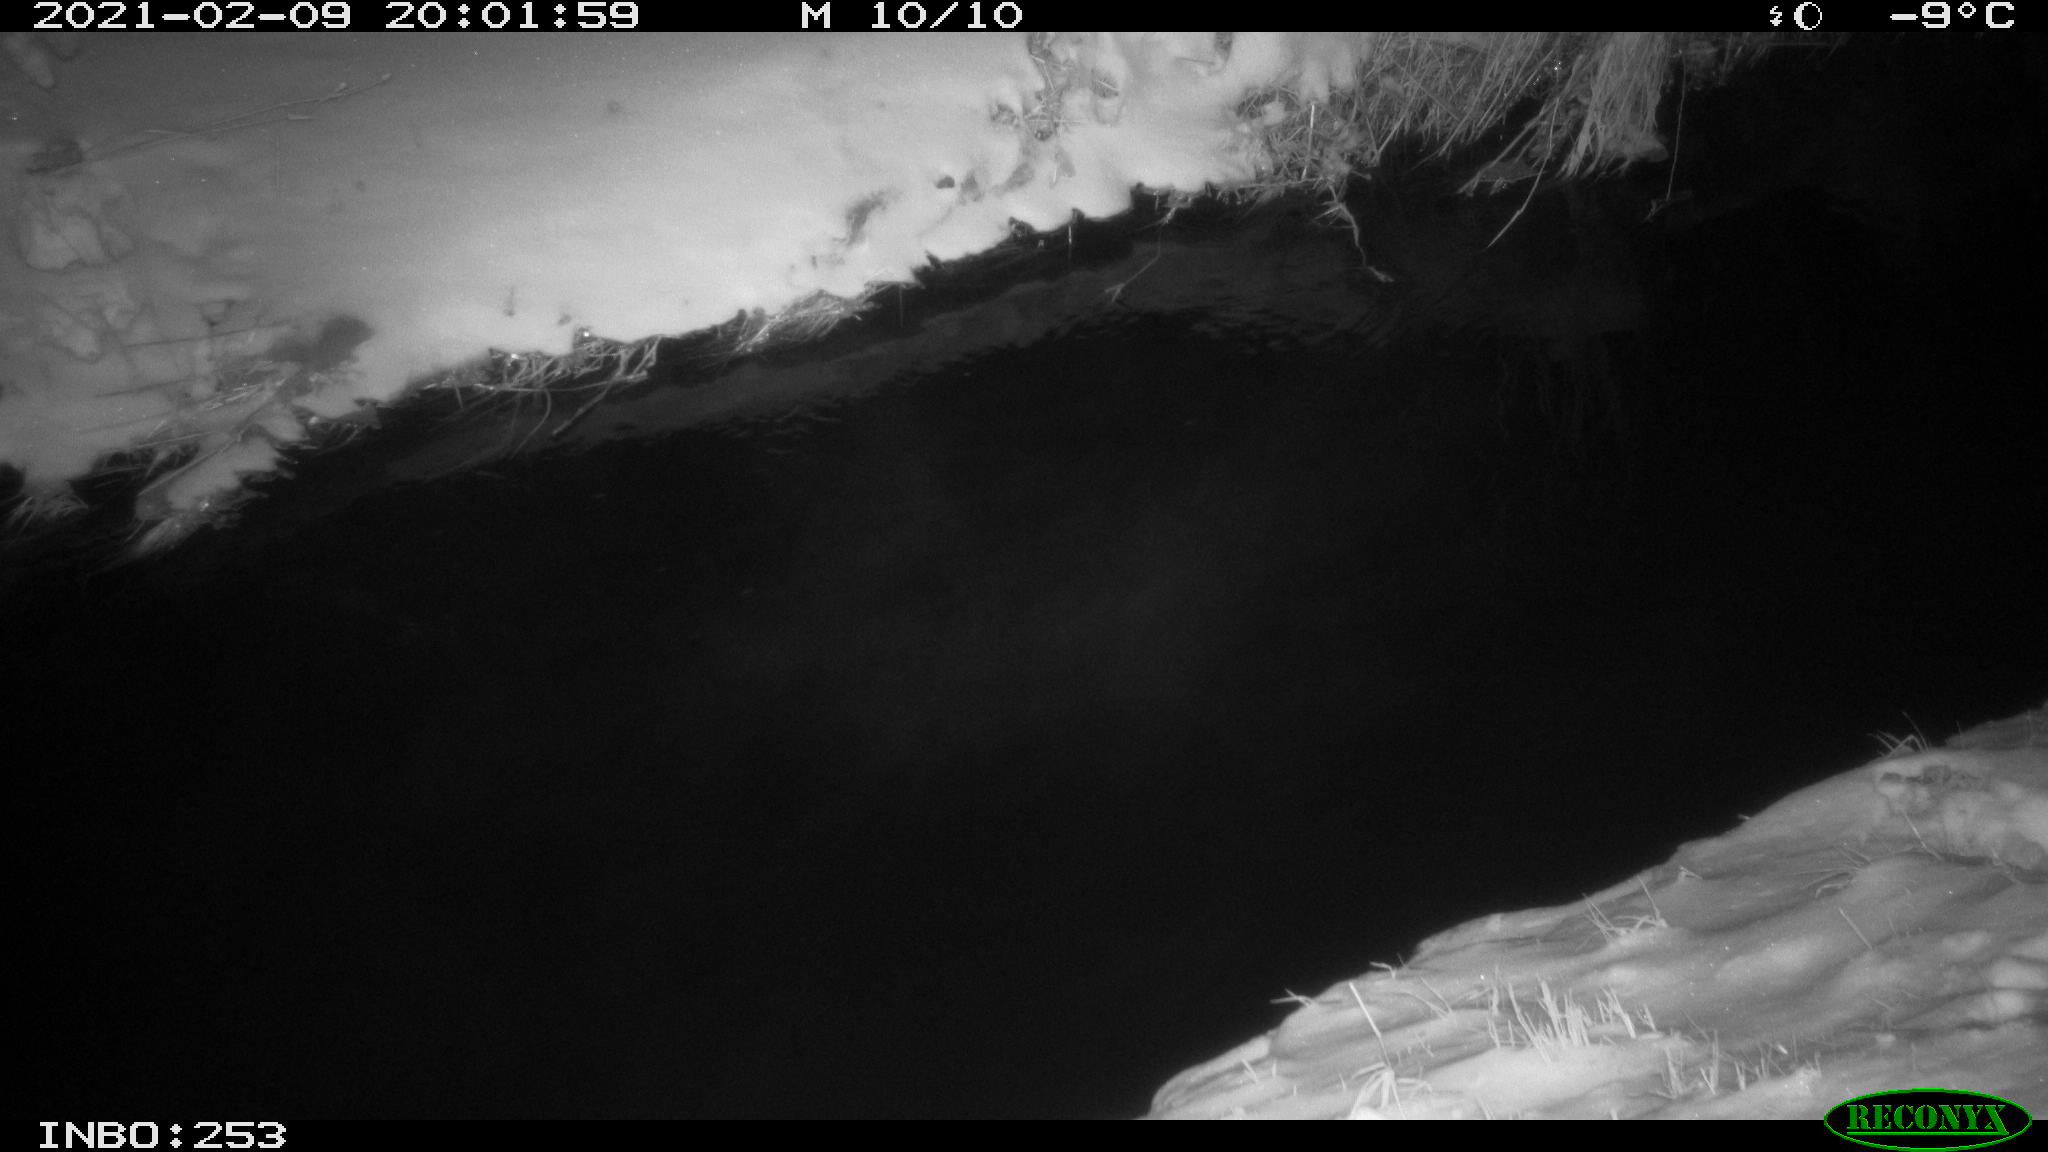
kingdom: Animalia
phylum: Chordata
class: Aves
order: Anseriformes
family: Anatidae
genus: Anas
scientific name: Anas platyrhynchos
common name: Mallard
